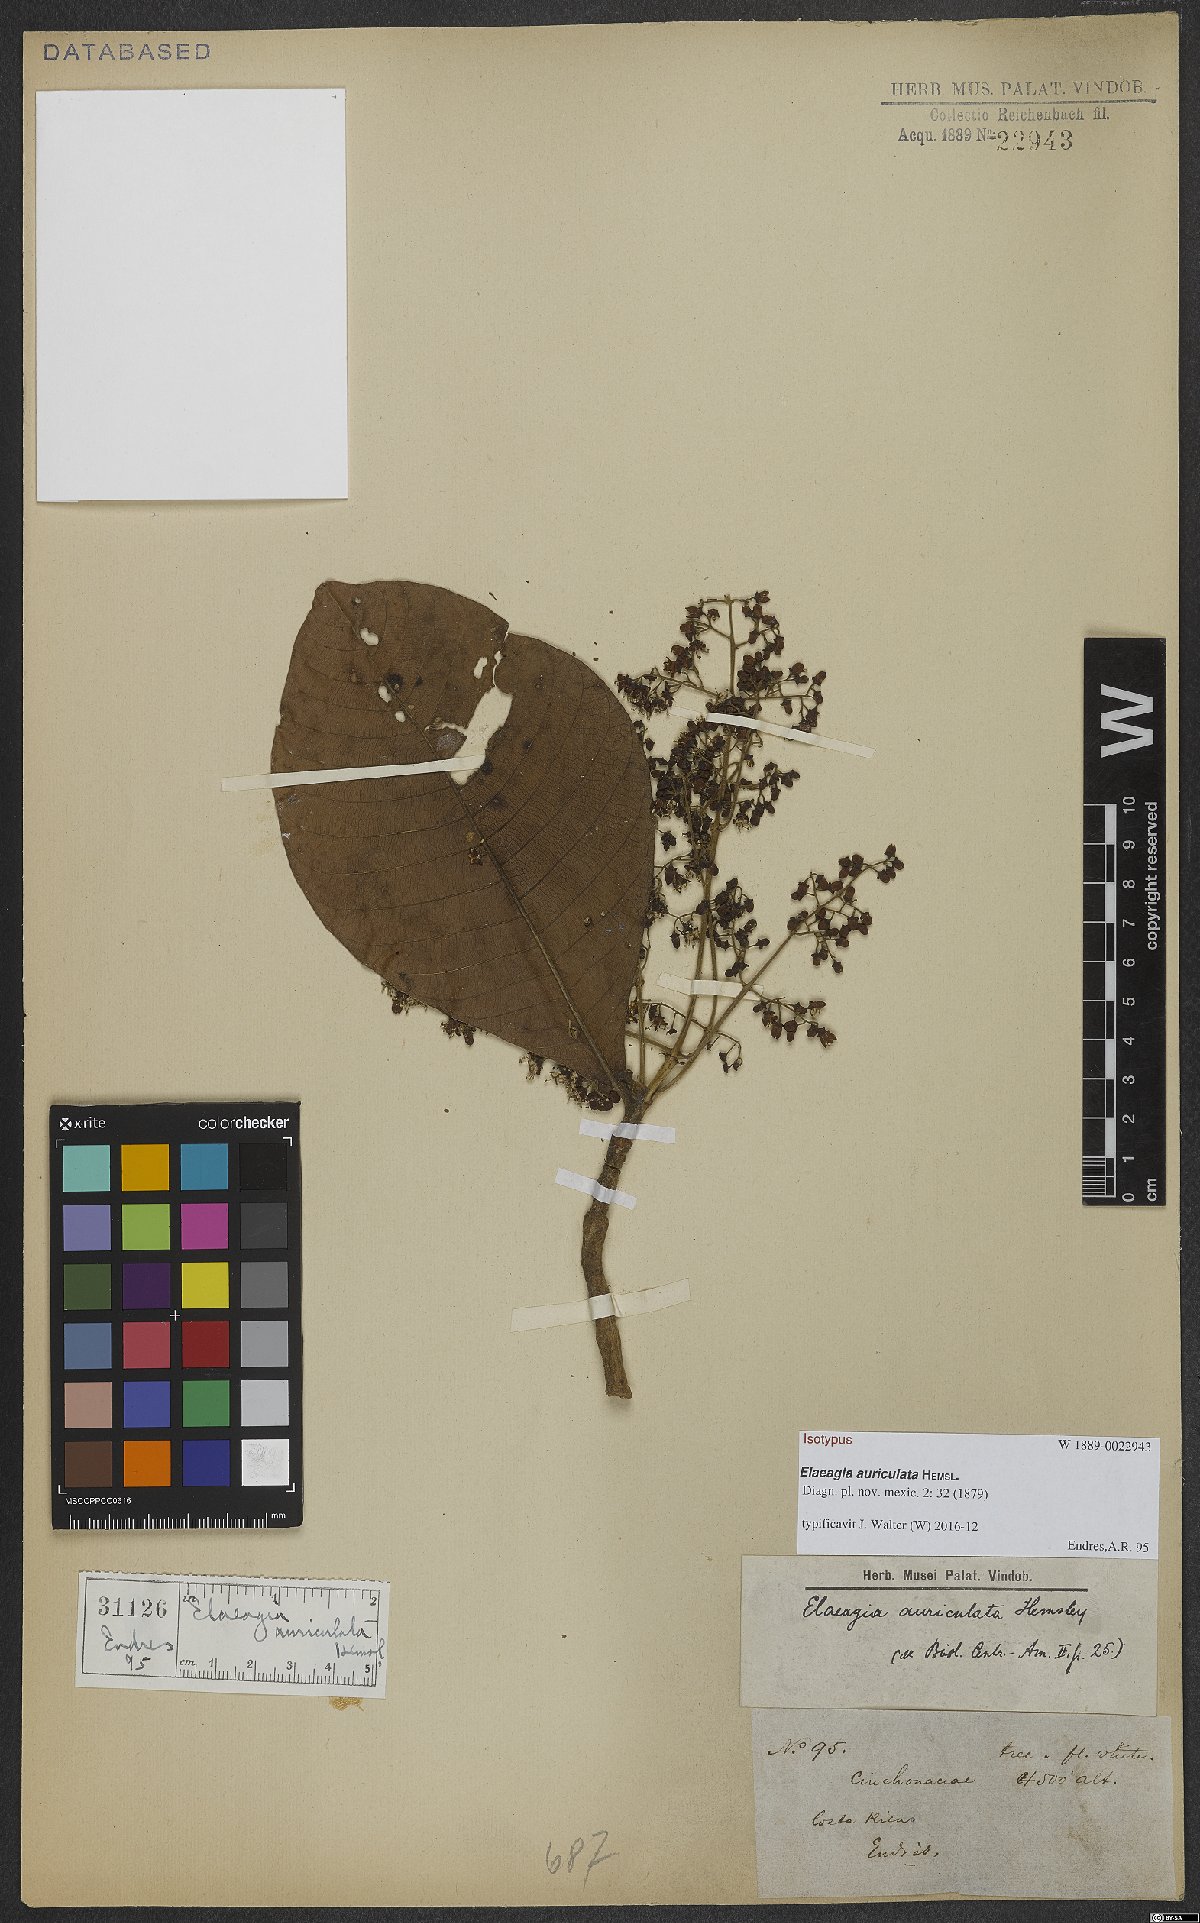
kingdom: Plantae
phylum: Tracheophyta
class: Magnoliopsida
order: Gentianales
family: Rubiaceae
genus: Elaeagia
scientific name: Elaeagia auriculata
